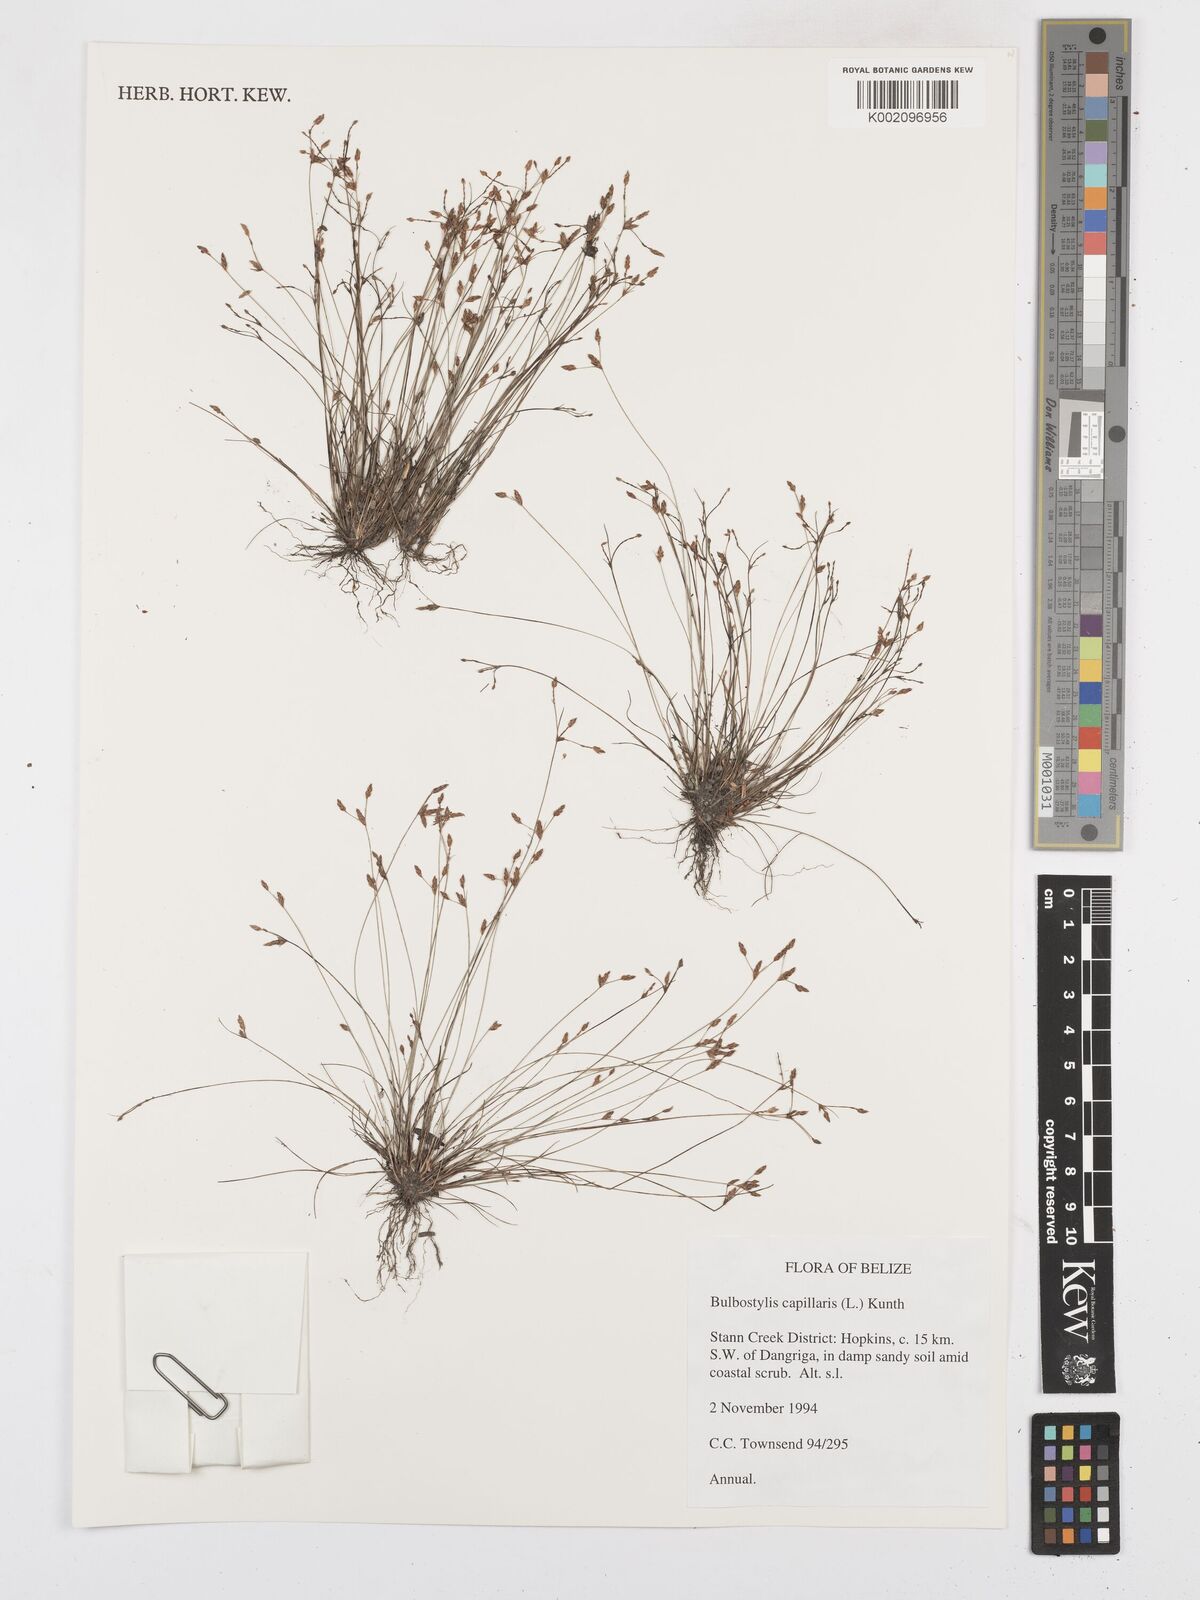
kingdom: Plantae
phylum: Tracheophyta
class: Liliopsida
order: Poales
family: Cyperaceae
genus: Bulbostylis
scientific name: Bulbostylis capillaris
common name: Densetuft hairsedge
